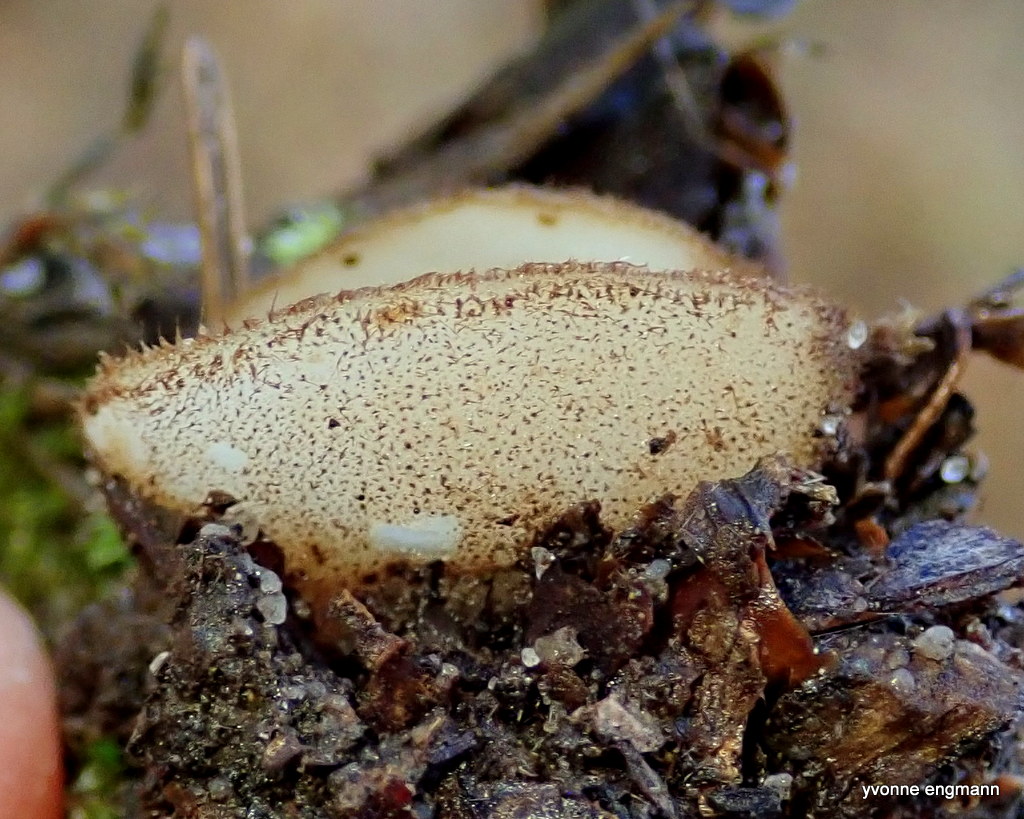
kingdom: Fungi
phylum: Ascomycota
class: Pezizomycetes
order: Pezizales
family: Pyronemataceae
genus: Humaria
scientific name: Humaria hemisphaerica
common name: halvkugleformet børstebæger
